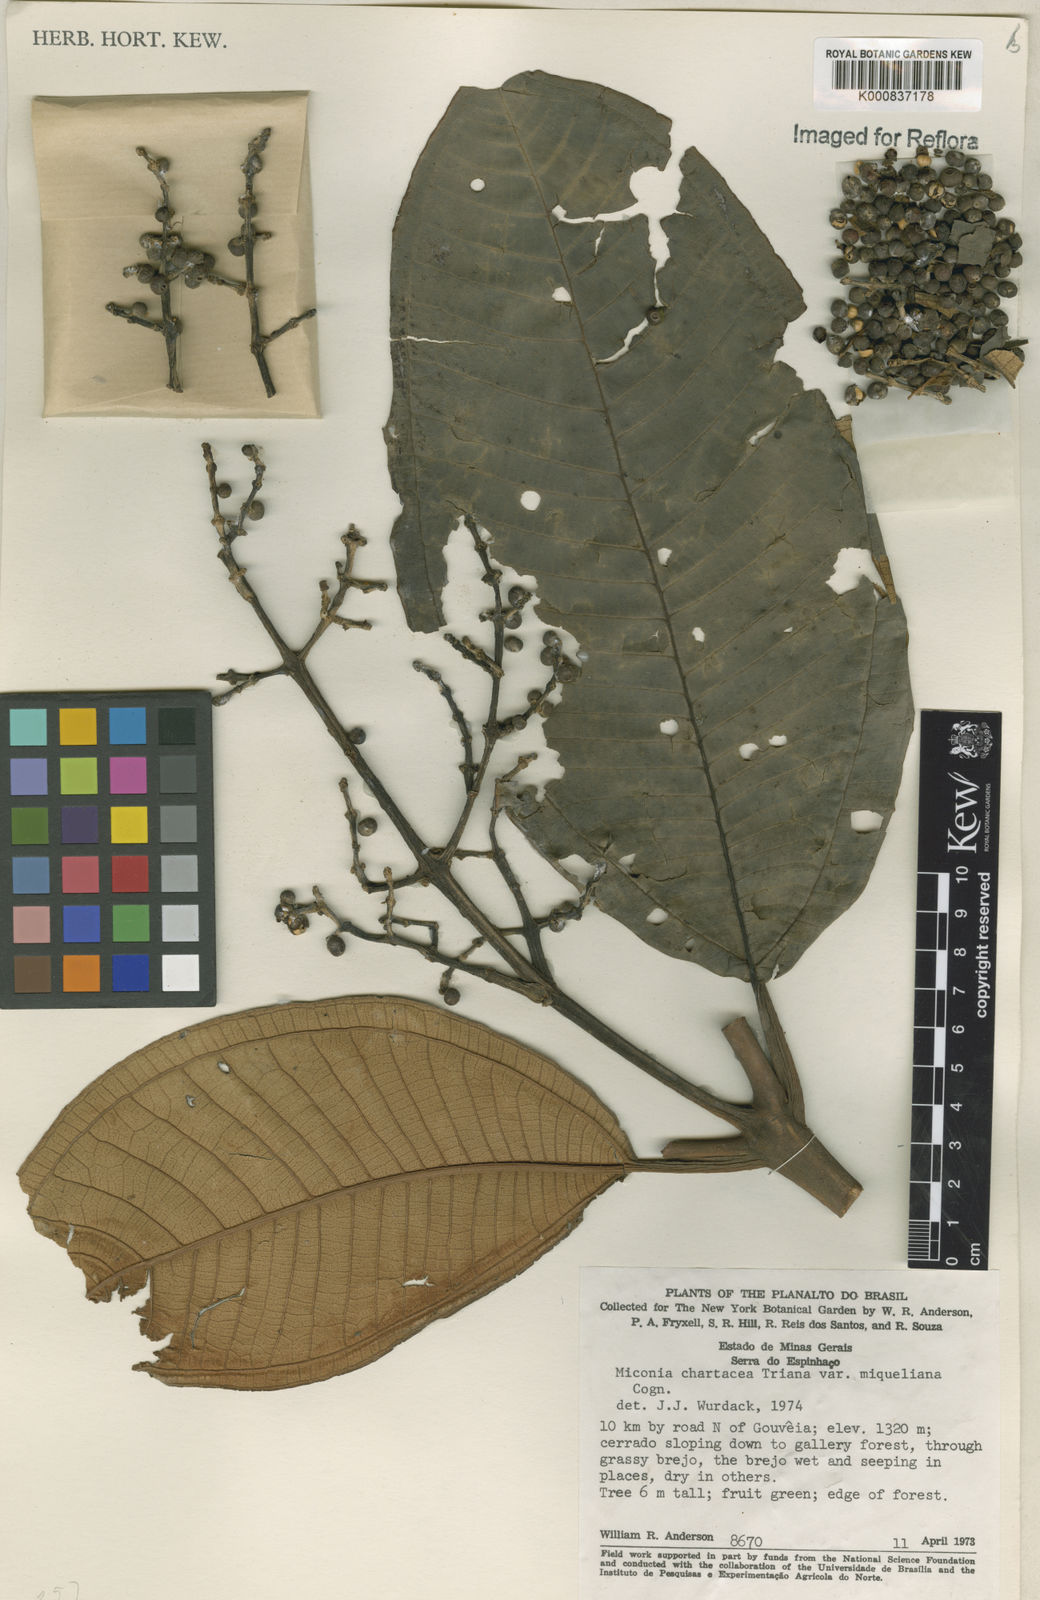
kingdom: Plantae
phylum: Tracheophyta
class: Magnoliopsida
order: Myrtales
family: Melastomataceae
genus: Miconia
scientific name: Miconia chartacea
